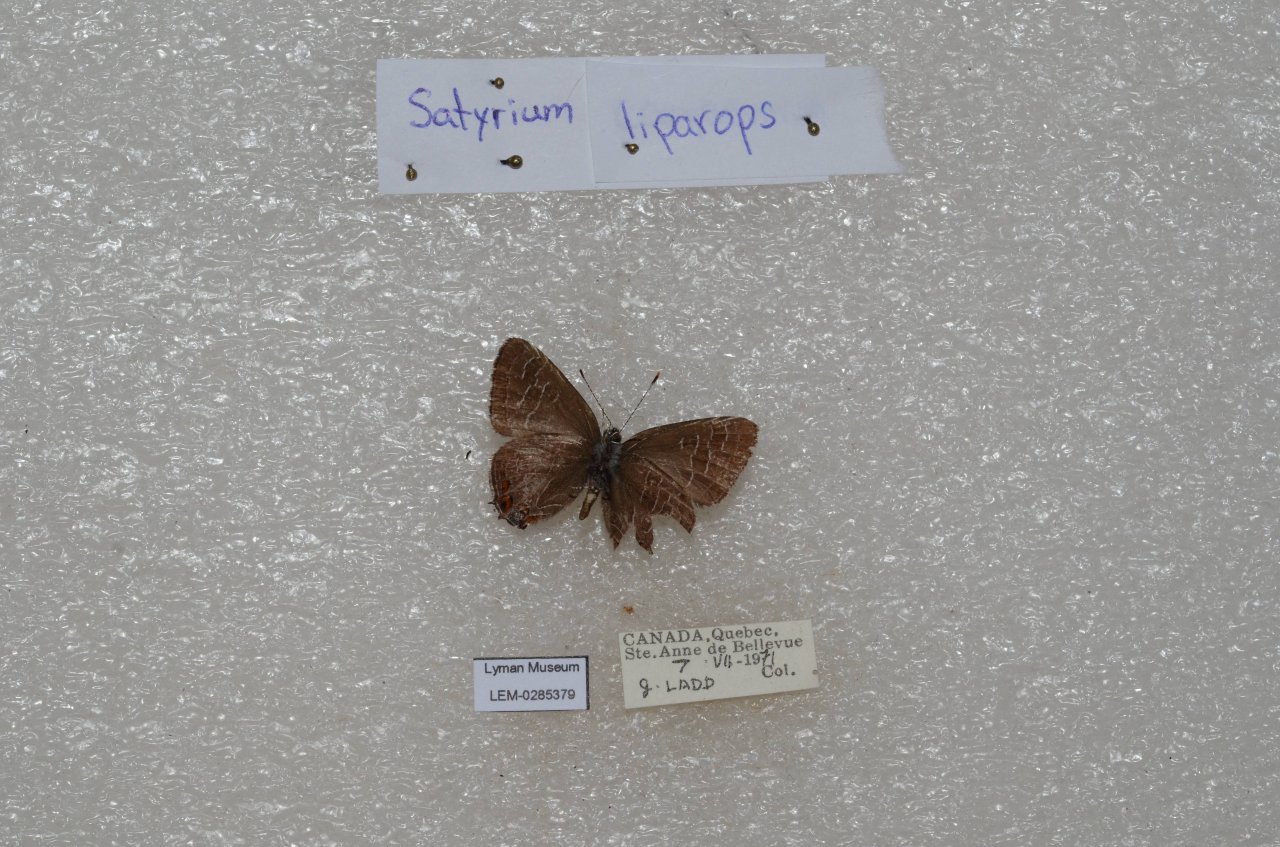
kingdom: Animalia
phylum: Arthropoda
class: Insecta
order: Lepidoptera
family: Lycaenidae
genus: Satyrium
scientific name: Satyrium liparops
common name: Striped Hairstreak
